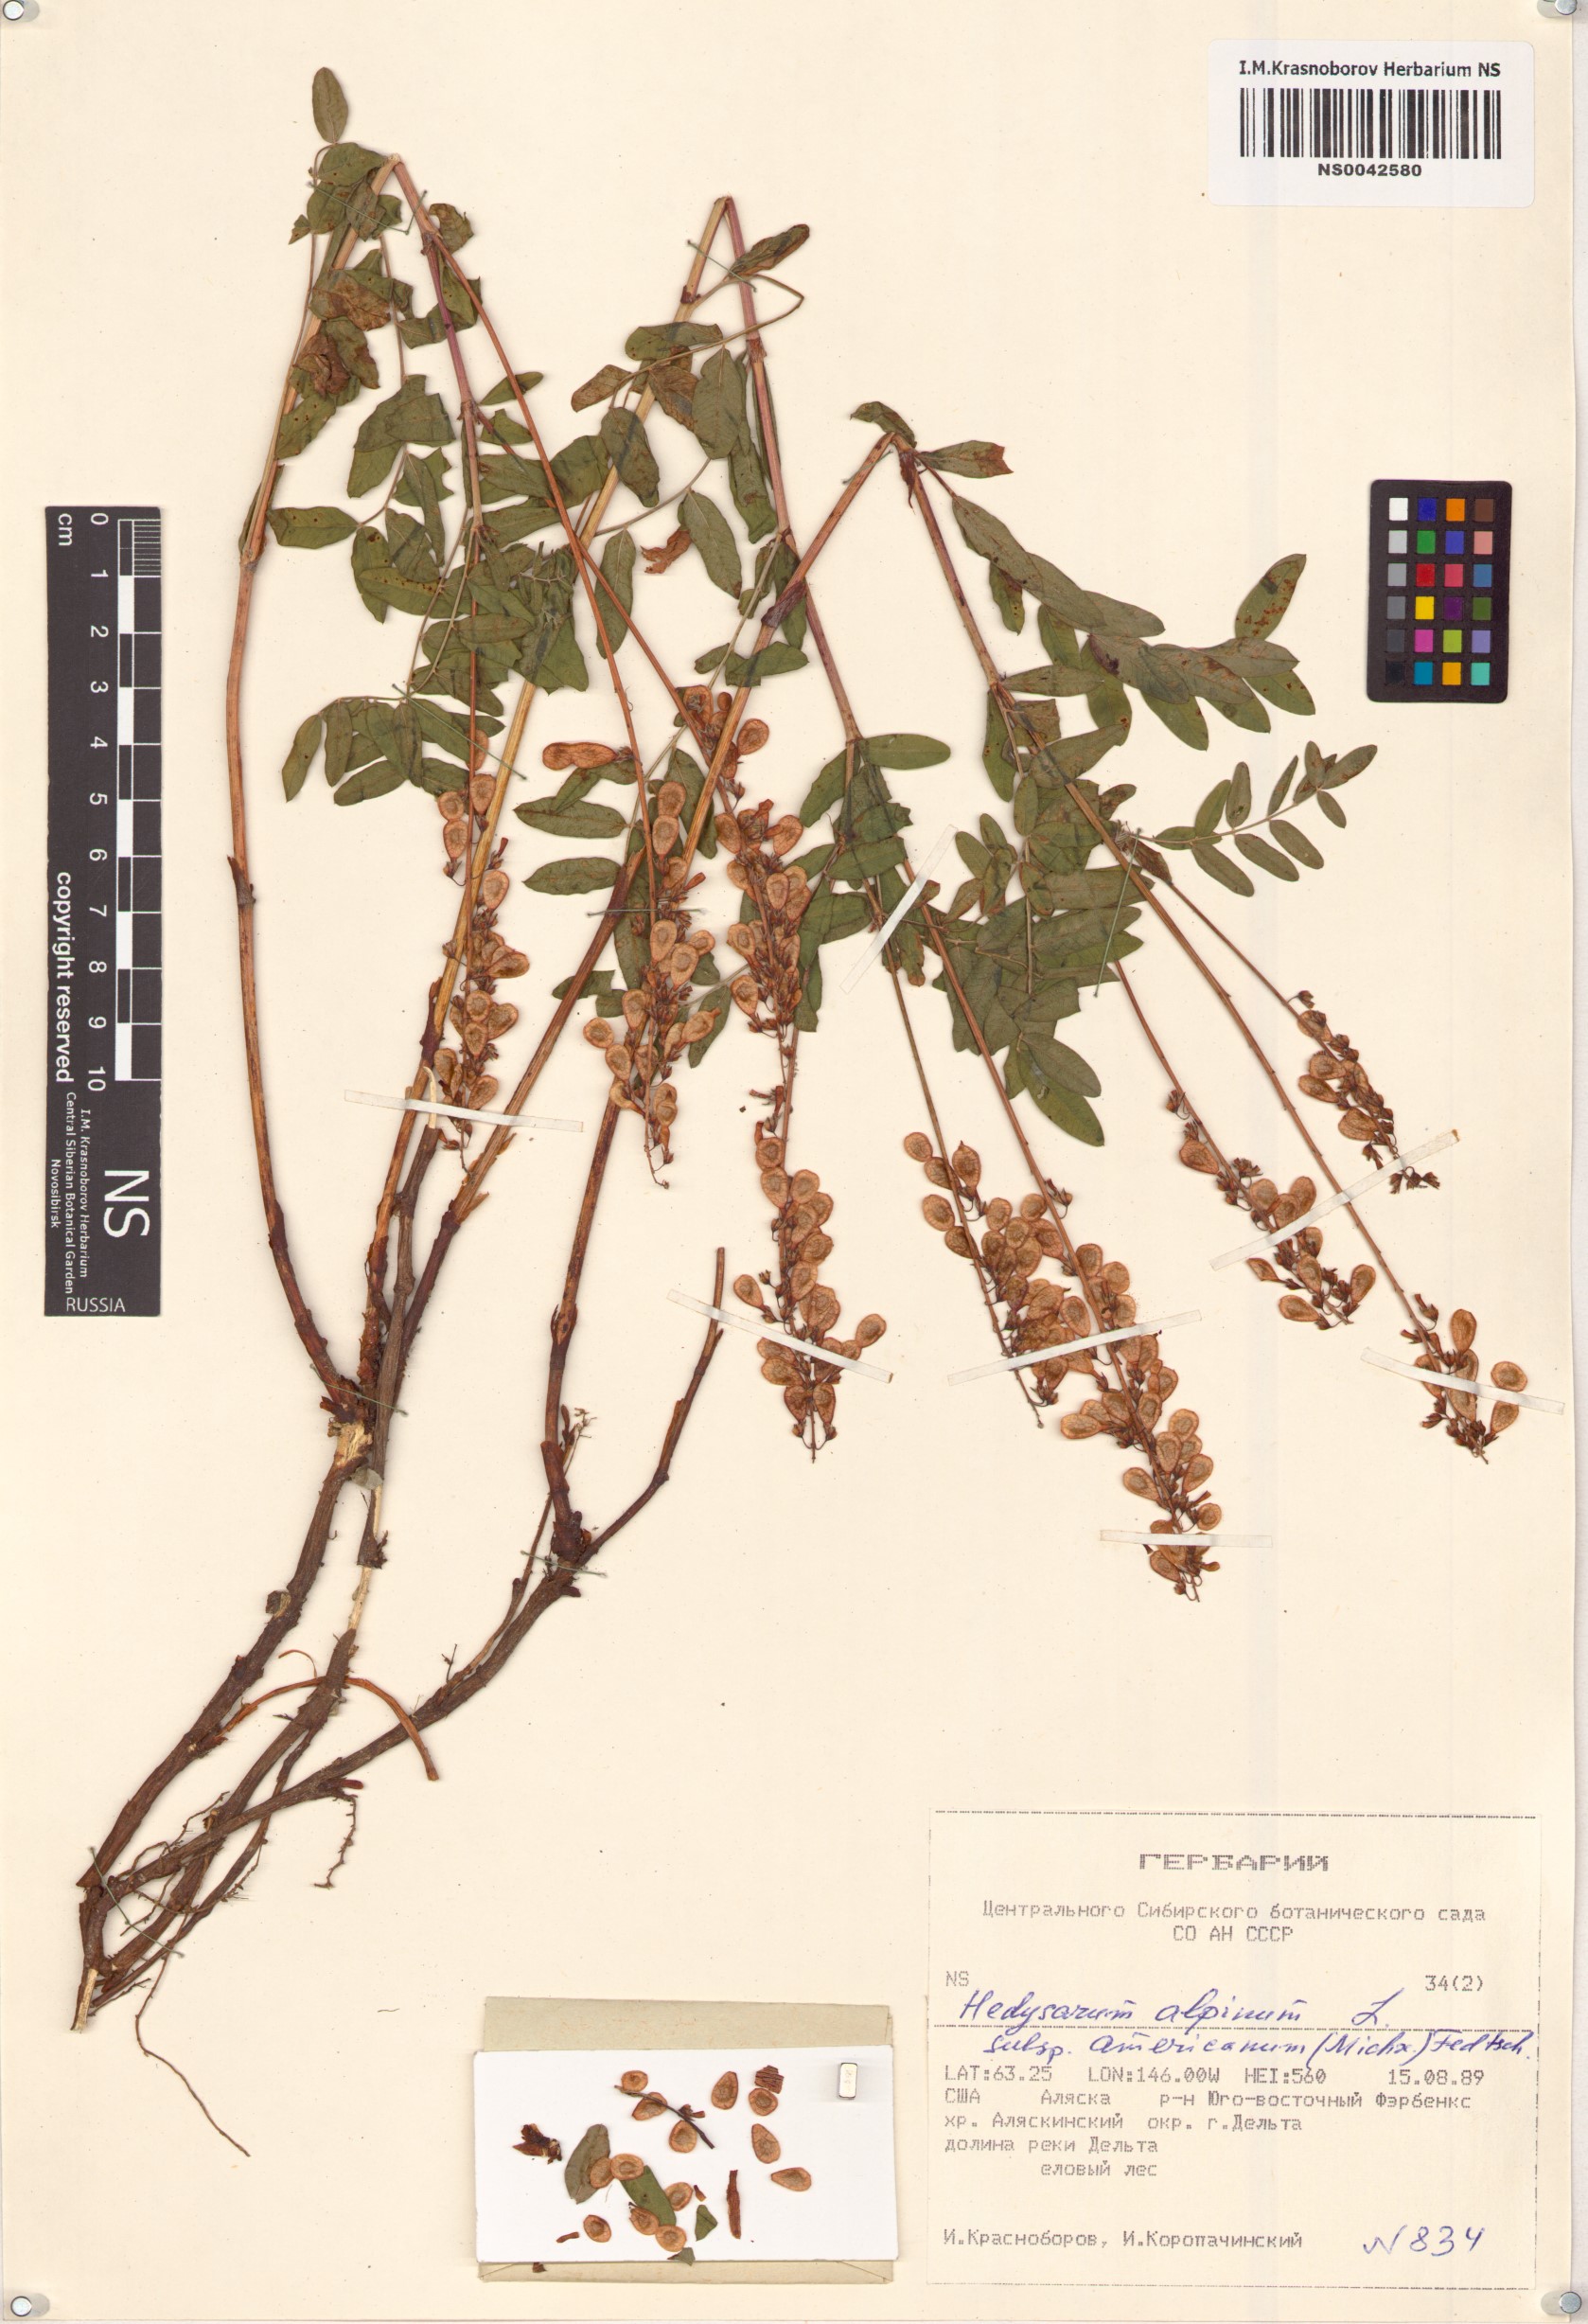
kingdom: Plantae
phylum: Tracheophyta
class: Magnoliopsida
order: Fabales
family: Fabaceae
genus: Hedysarum
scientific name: Hedysarum americanum
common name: Alpine hedysarum
